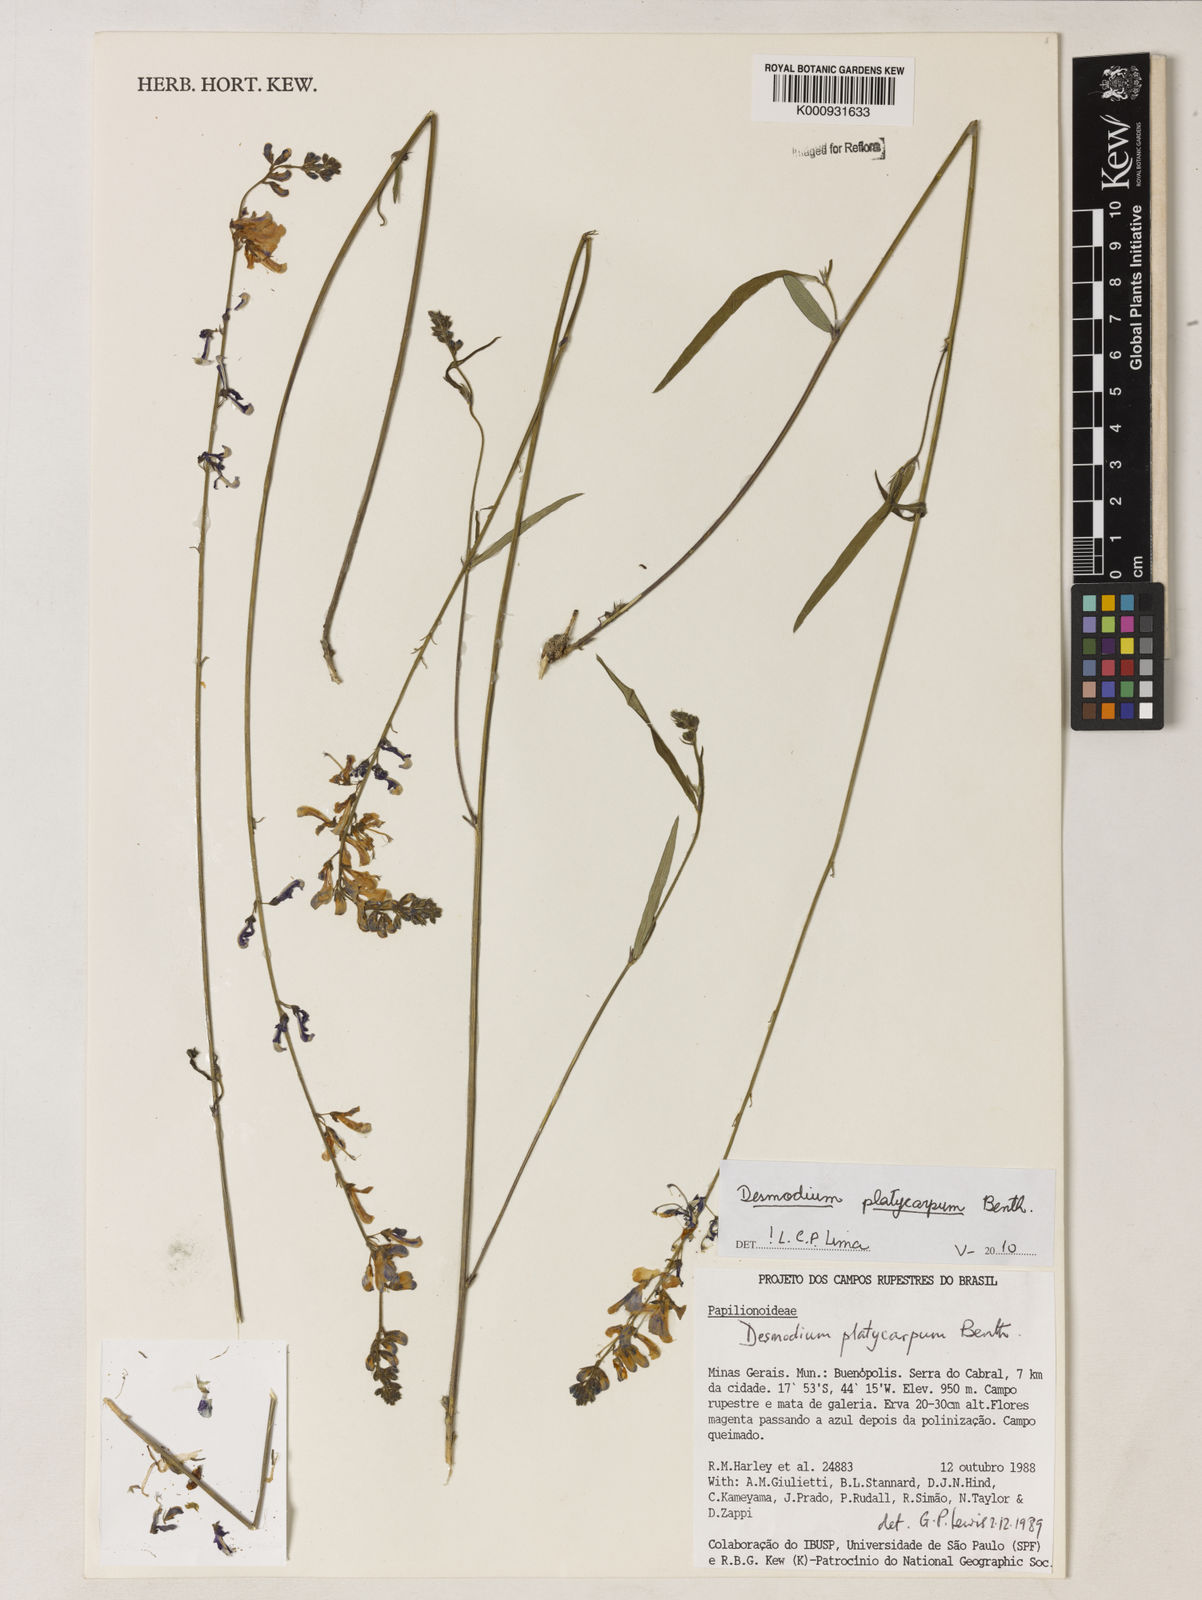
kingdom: Plantae
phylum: Tracheophyta
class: Magnoliopsida
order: Fabales
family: Fabaceae
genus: Desmodium
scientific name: Desmodium platycarpum
